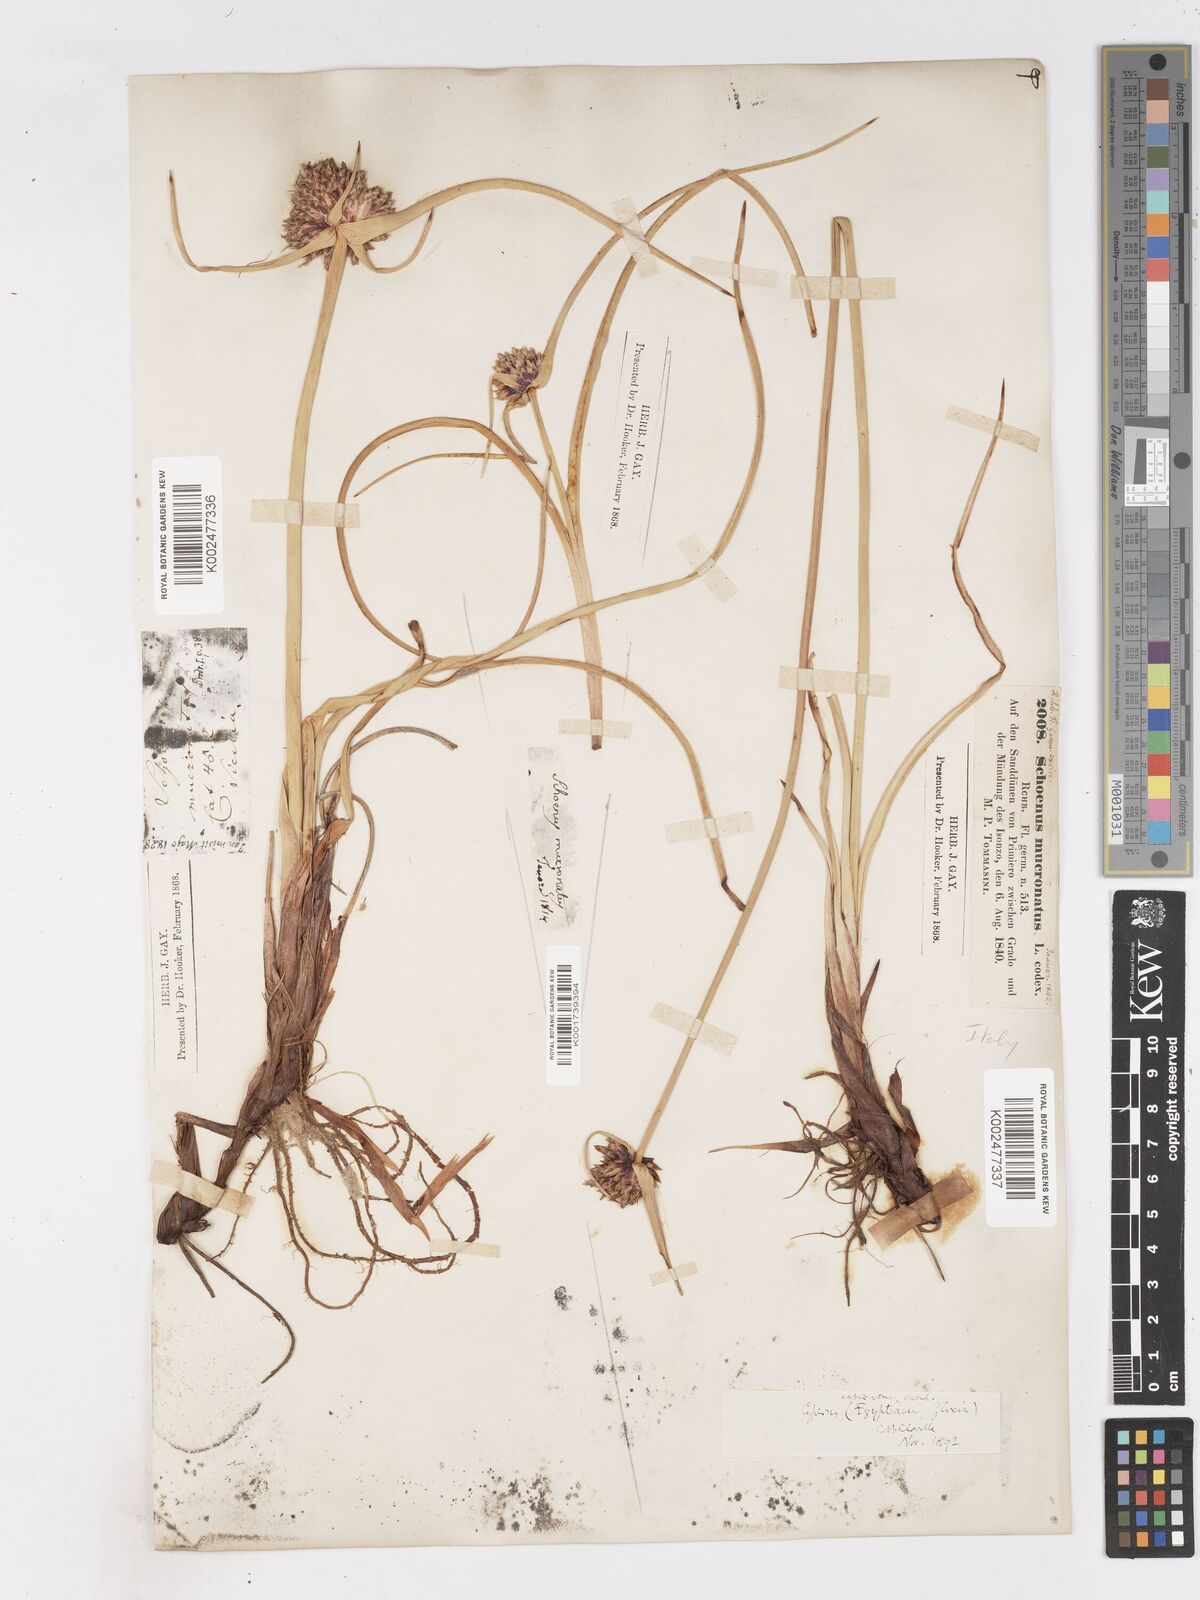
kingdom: Plantae
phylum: Tracheophyta
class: Liliopsida
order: Poales
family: Cyperaceae
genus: Cyperus
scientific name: Cyperus capitatus
